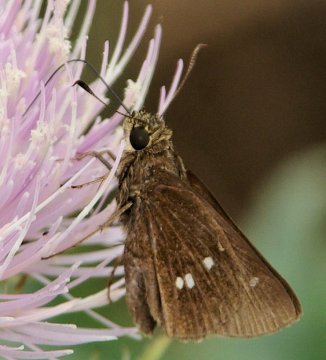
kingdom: Animalia
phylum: Arthropoda
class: Insecta
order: Lepidoptera
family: Hesperiidae
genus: Oligoria
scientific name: Oligoria maculata
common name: Twin-spot Skipper
